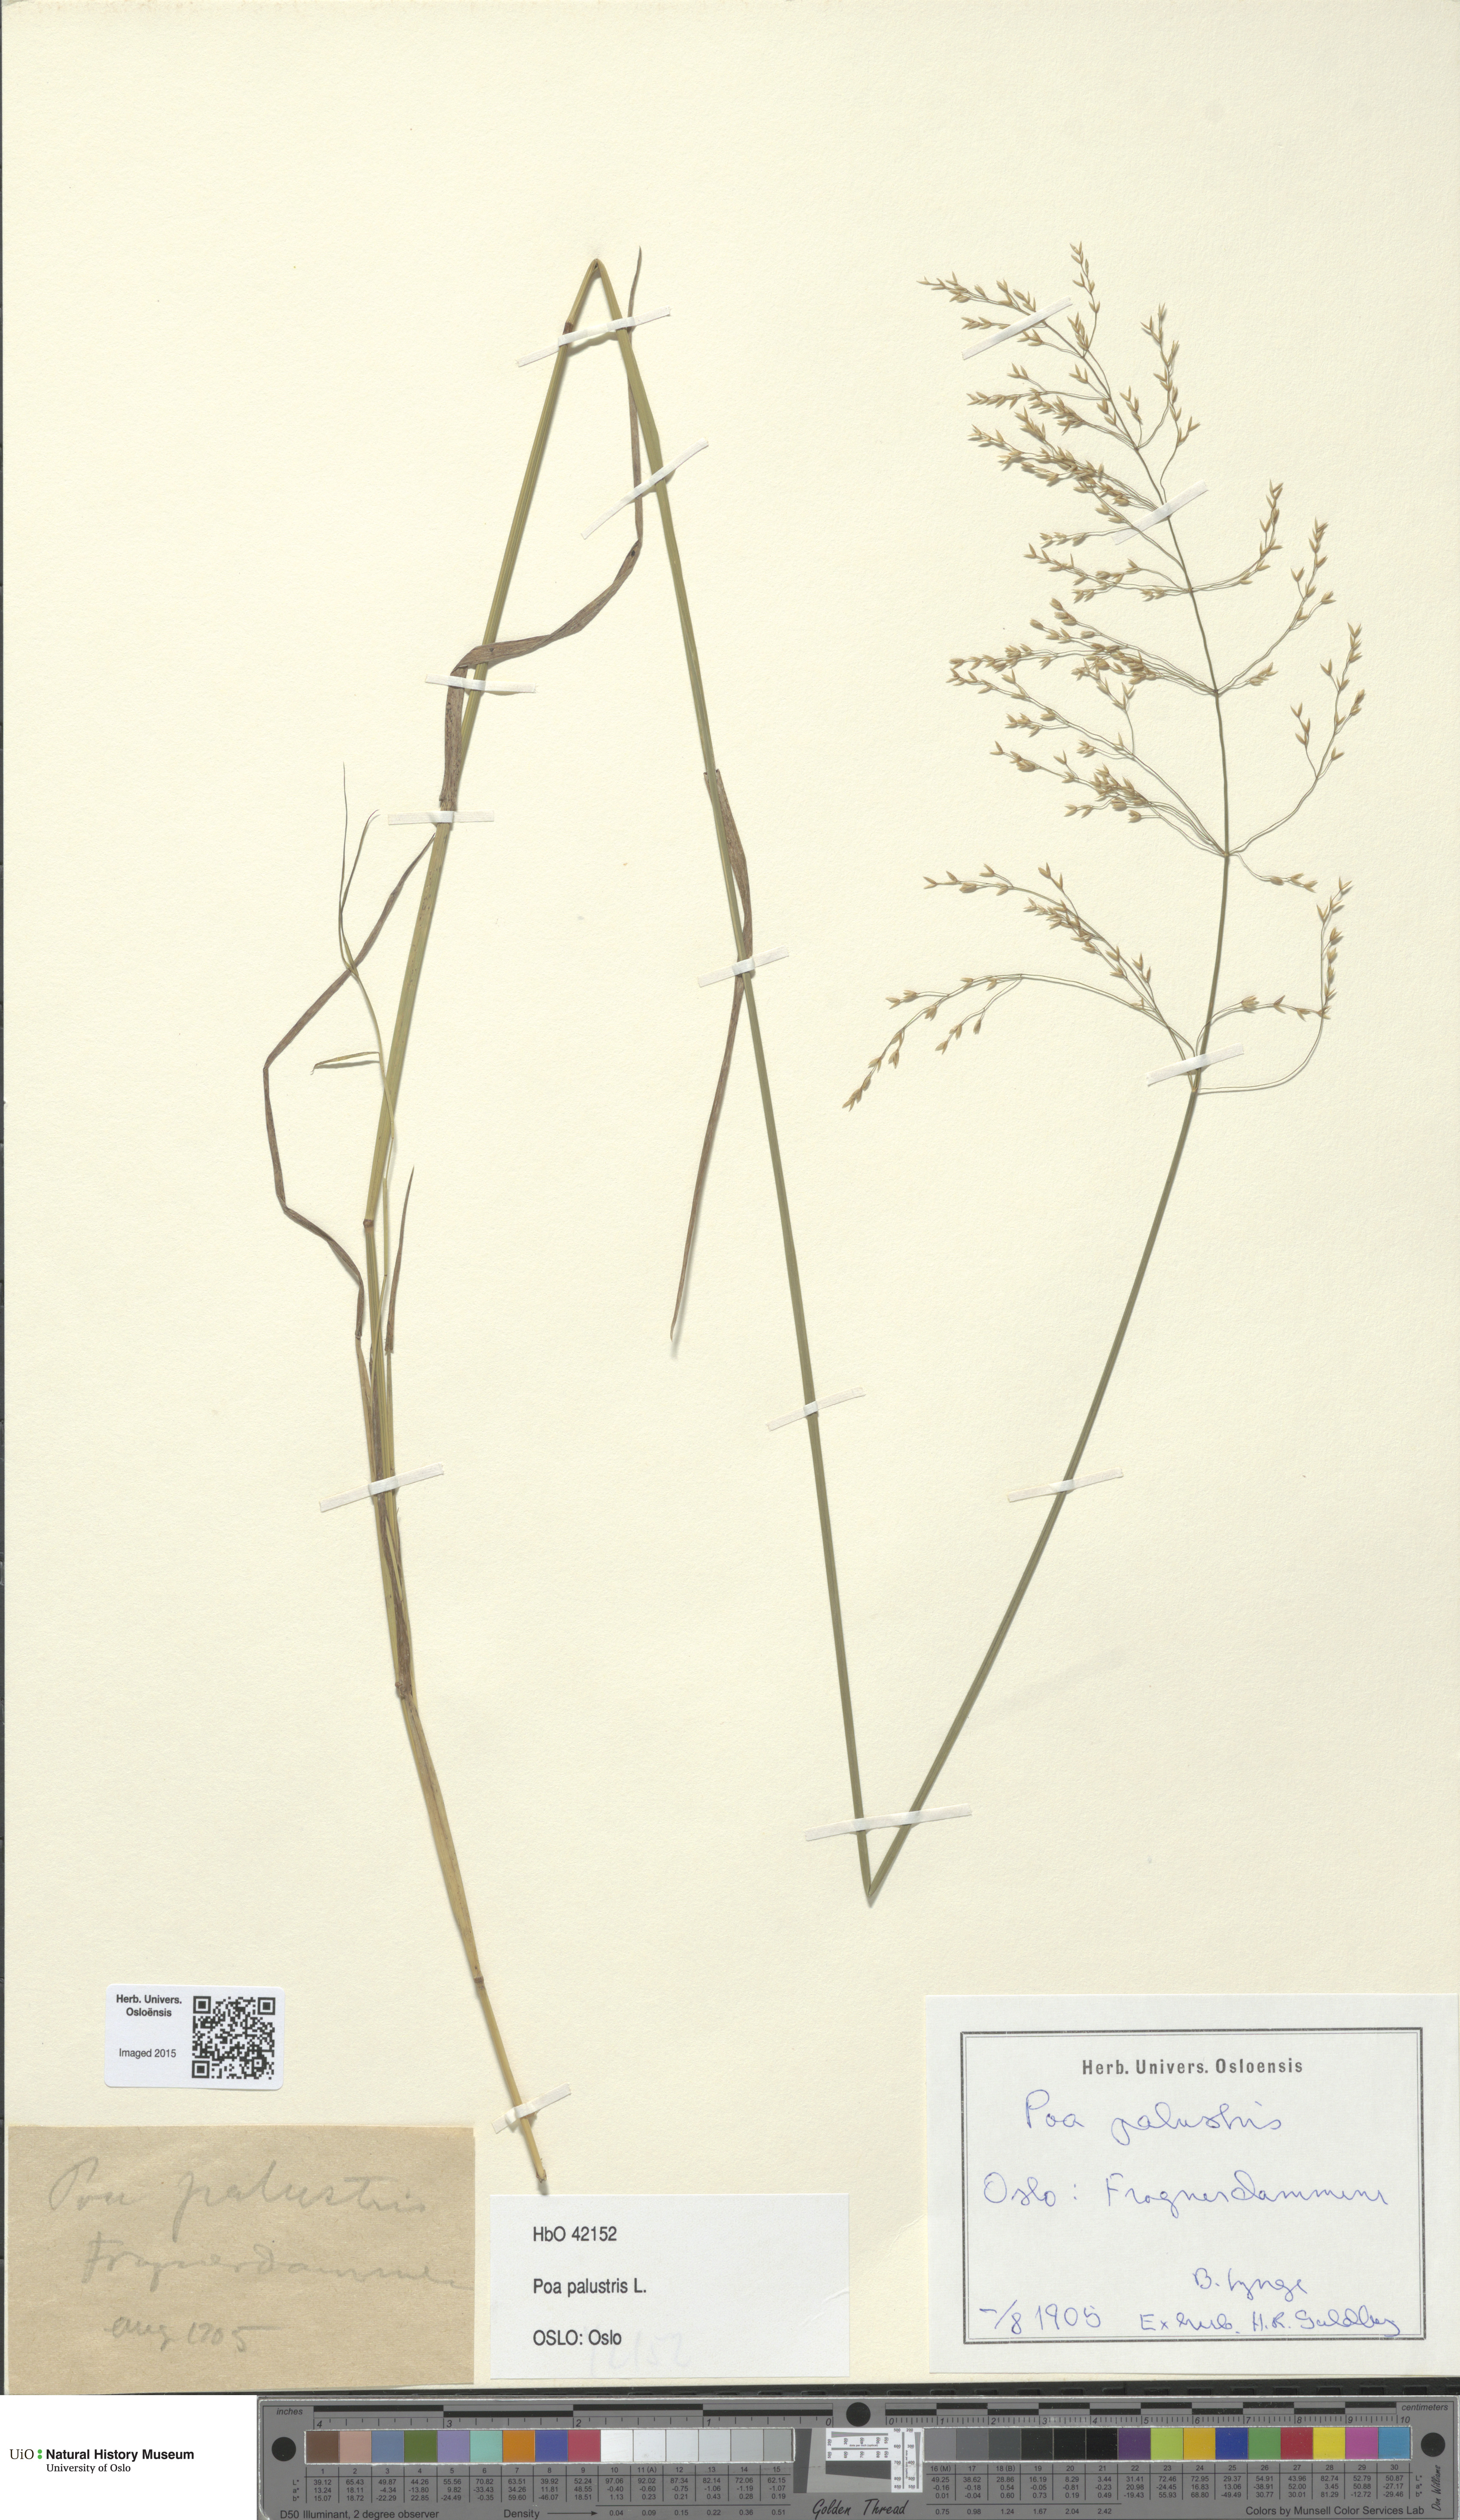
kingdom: Plantae
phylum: Tracheophyta
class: Liliopsida
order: Poales
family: Poaceae
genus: Poa
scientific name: Poa palustris
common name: Swamp meadow-grass
